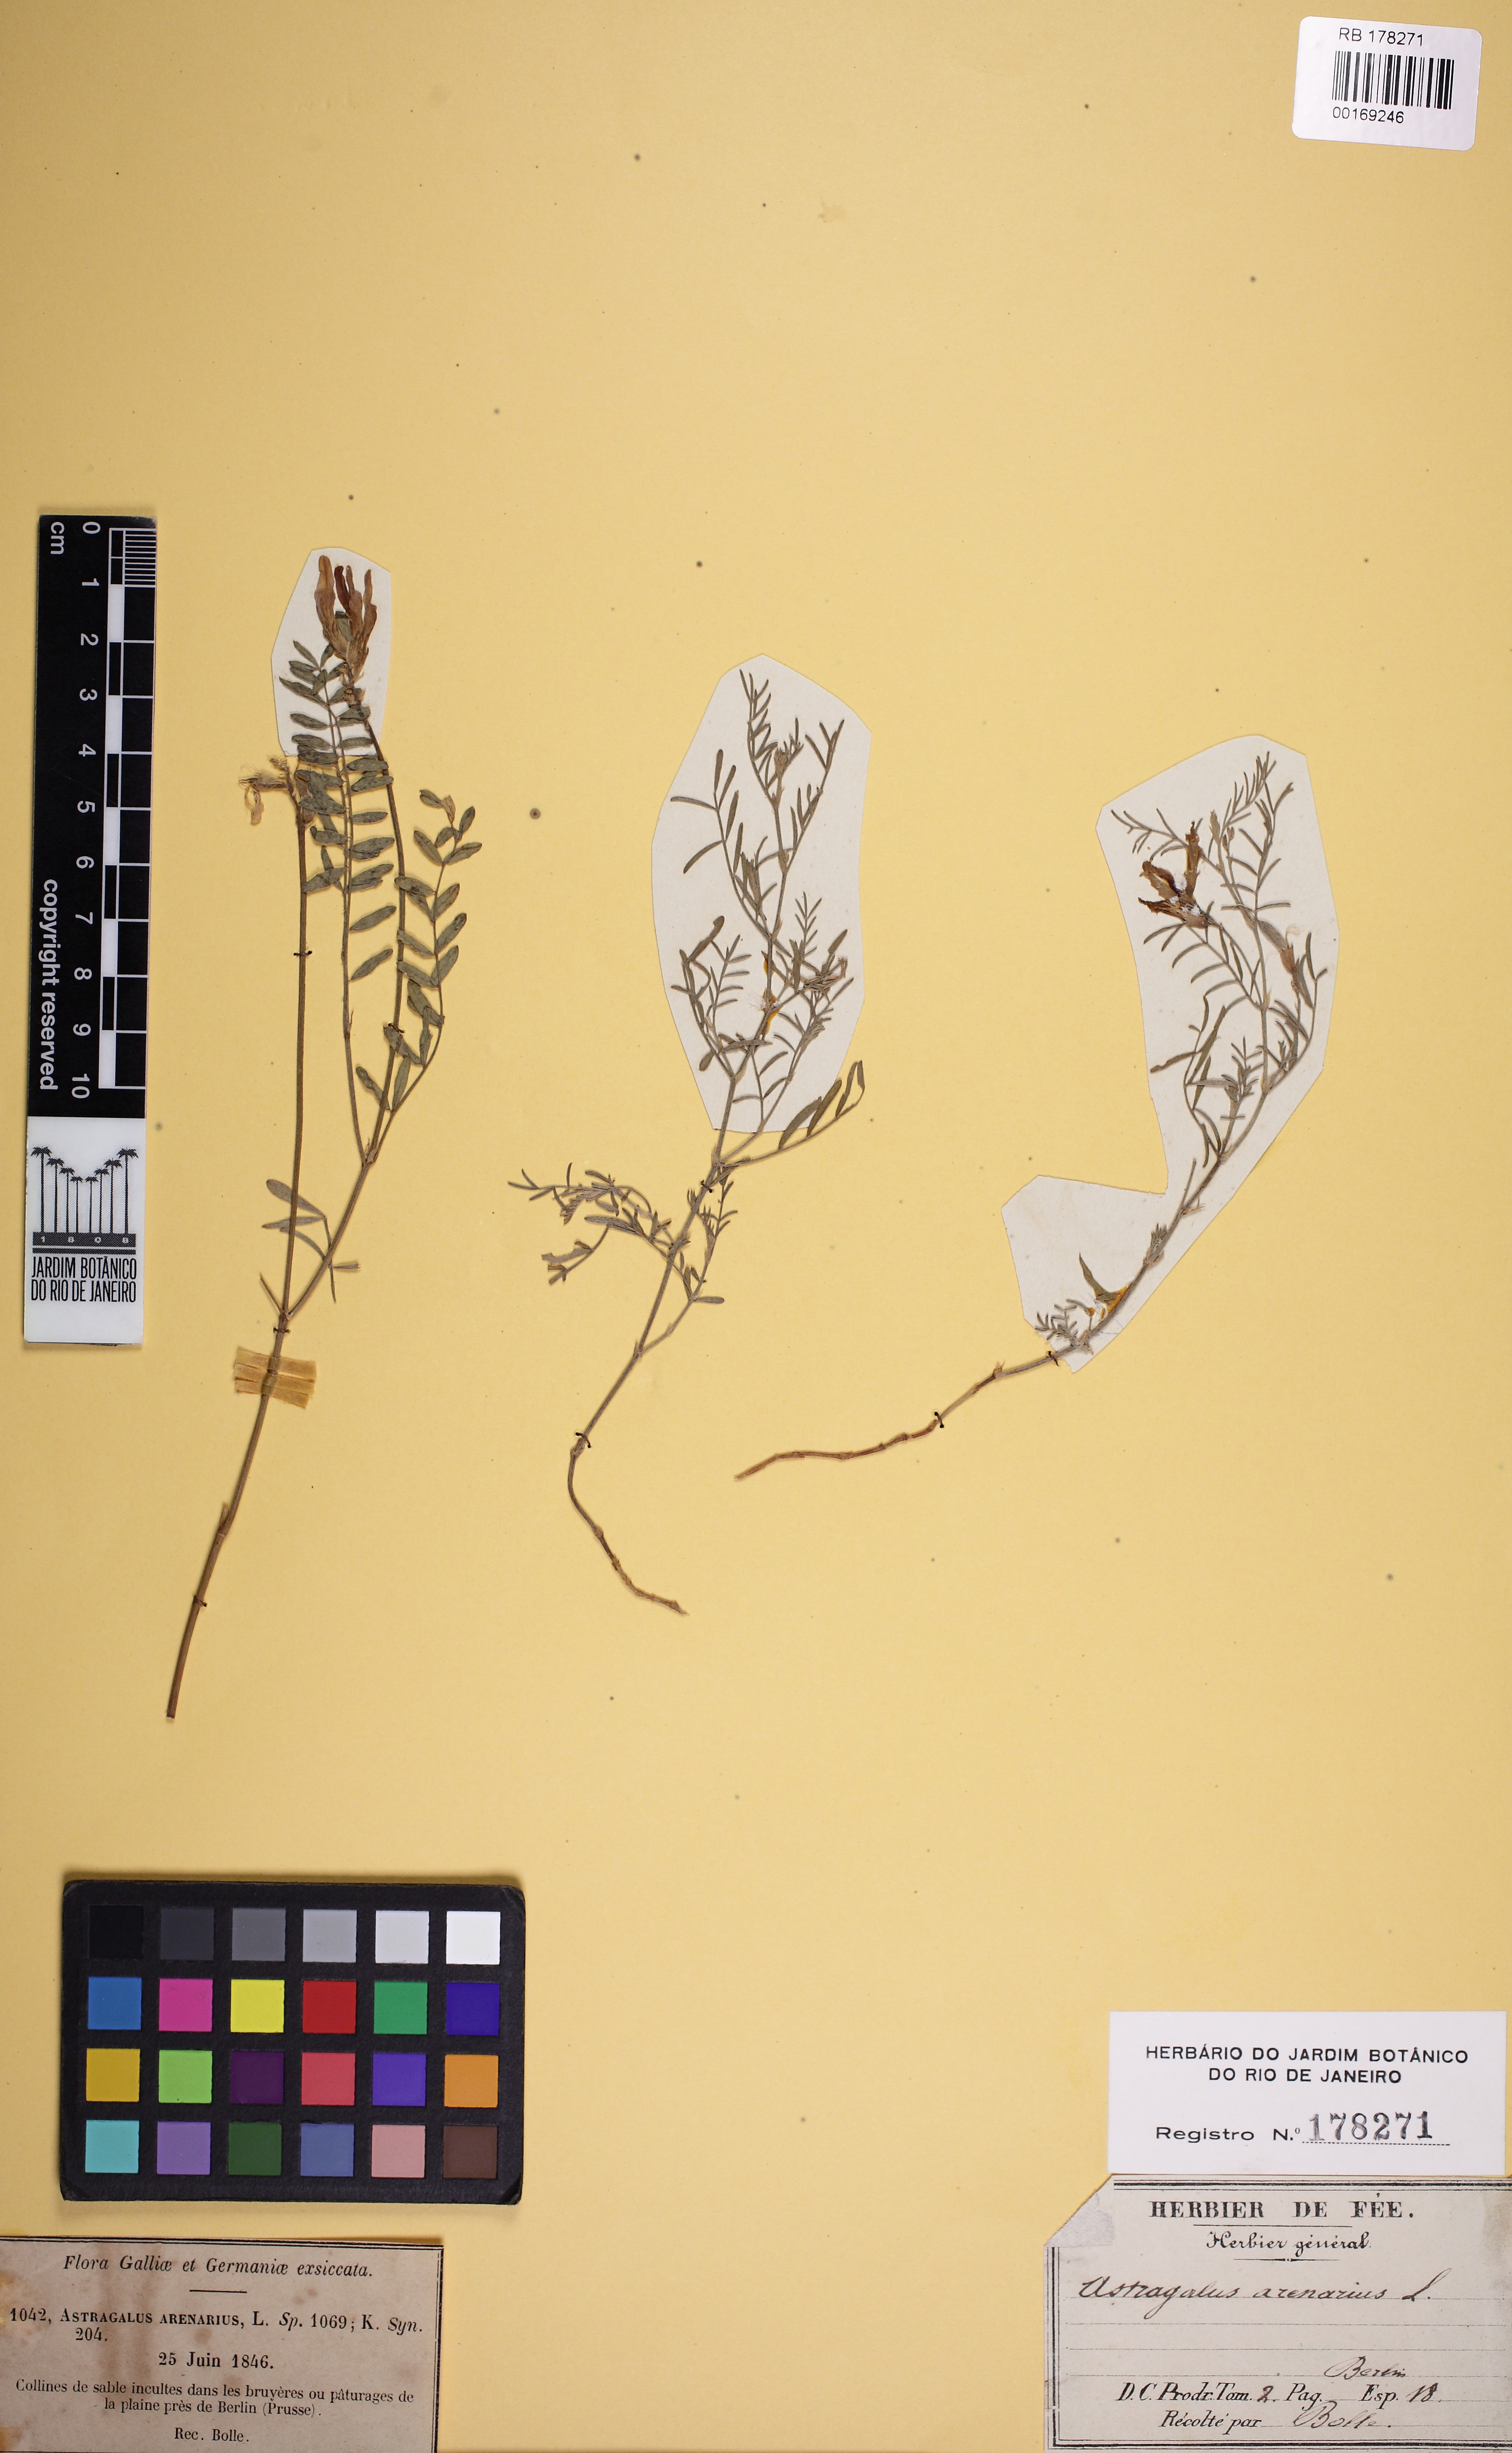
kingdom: Plantae
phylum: Tracheophyta
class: Magnoliopsida
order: Fabales
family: Fabaceae
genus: Astragalus
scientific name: Astragalus arenarius
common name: Arenarious milk-vetch
